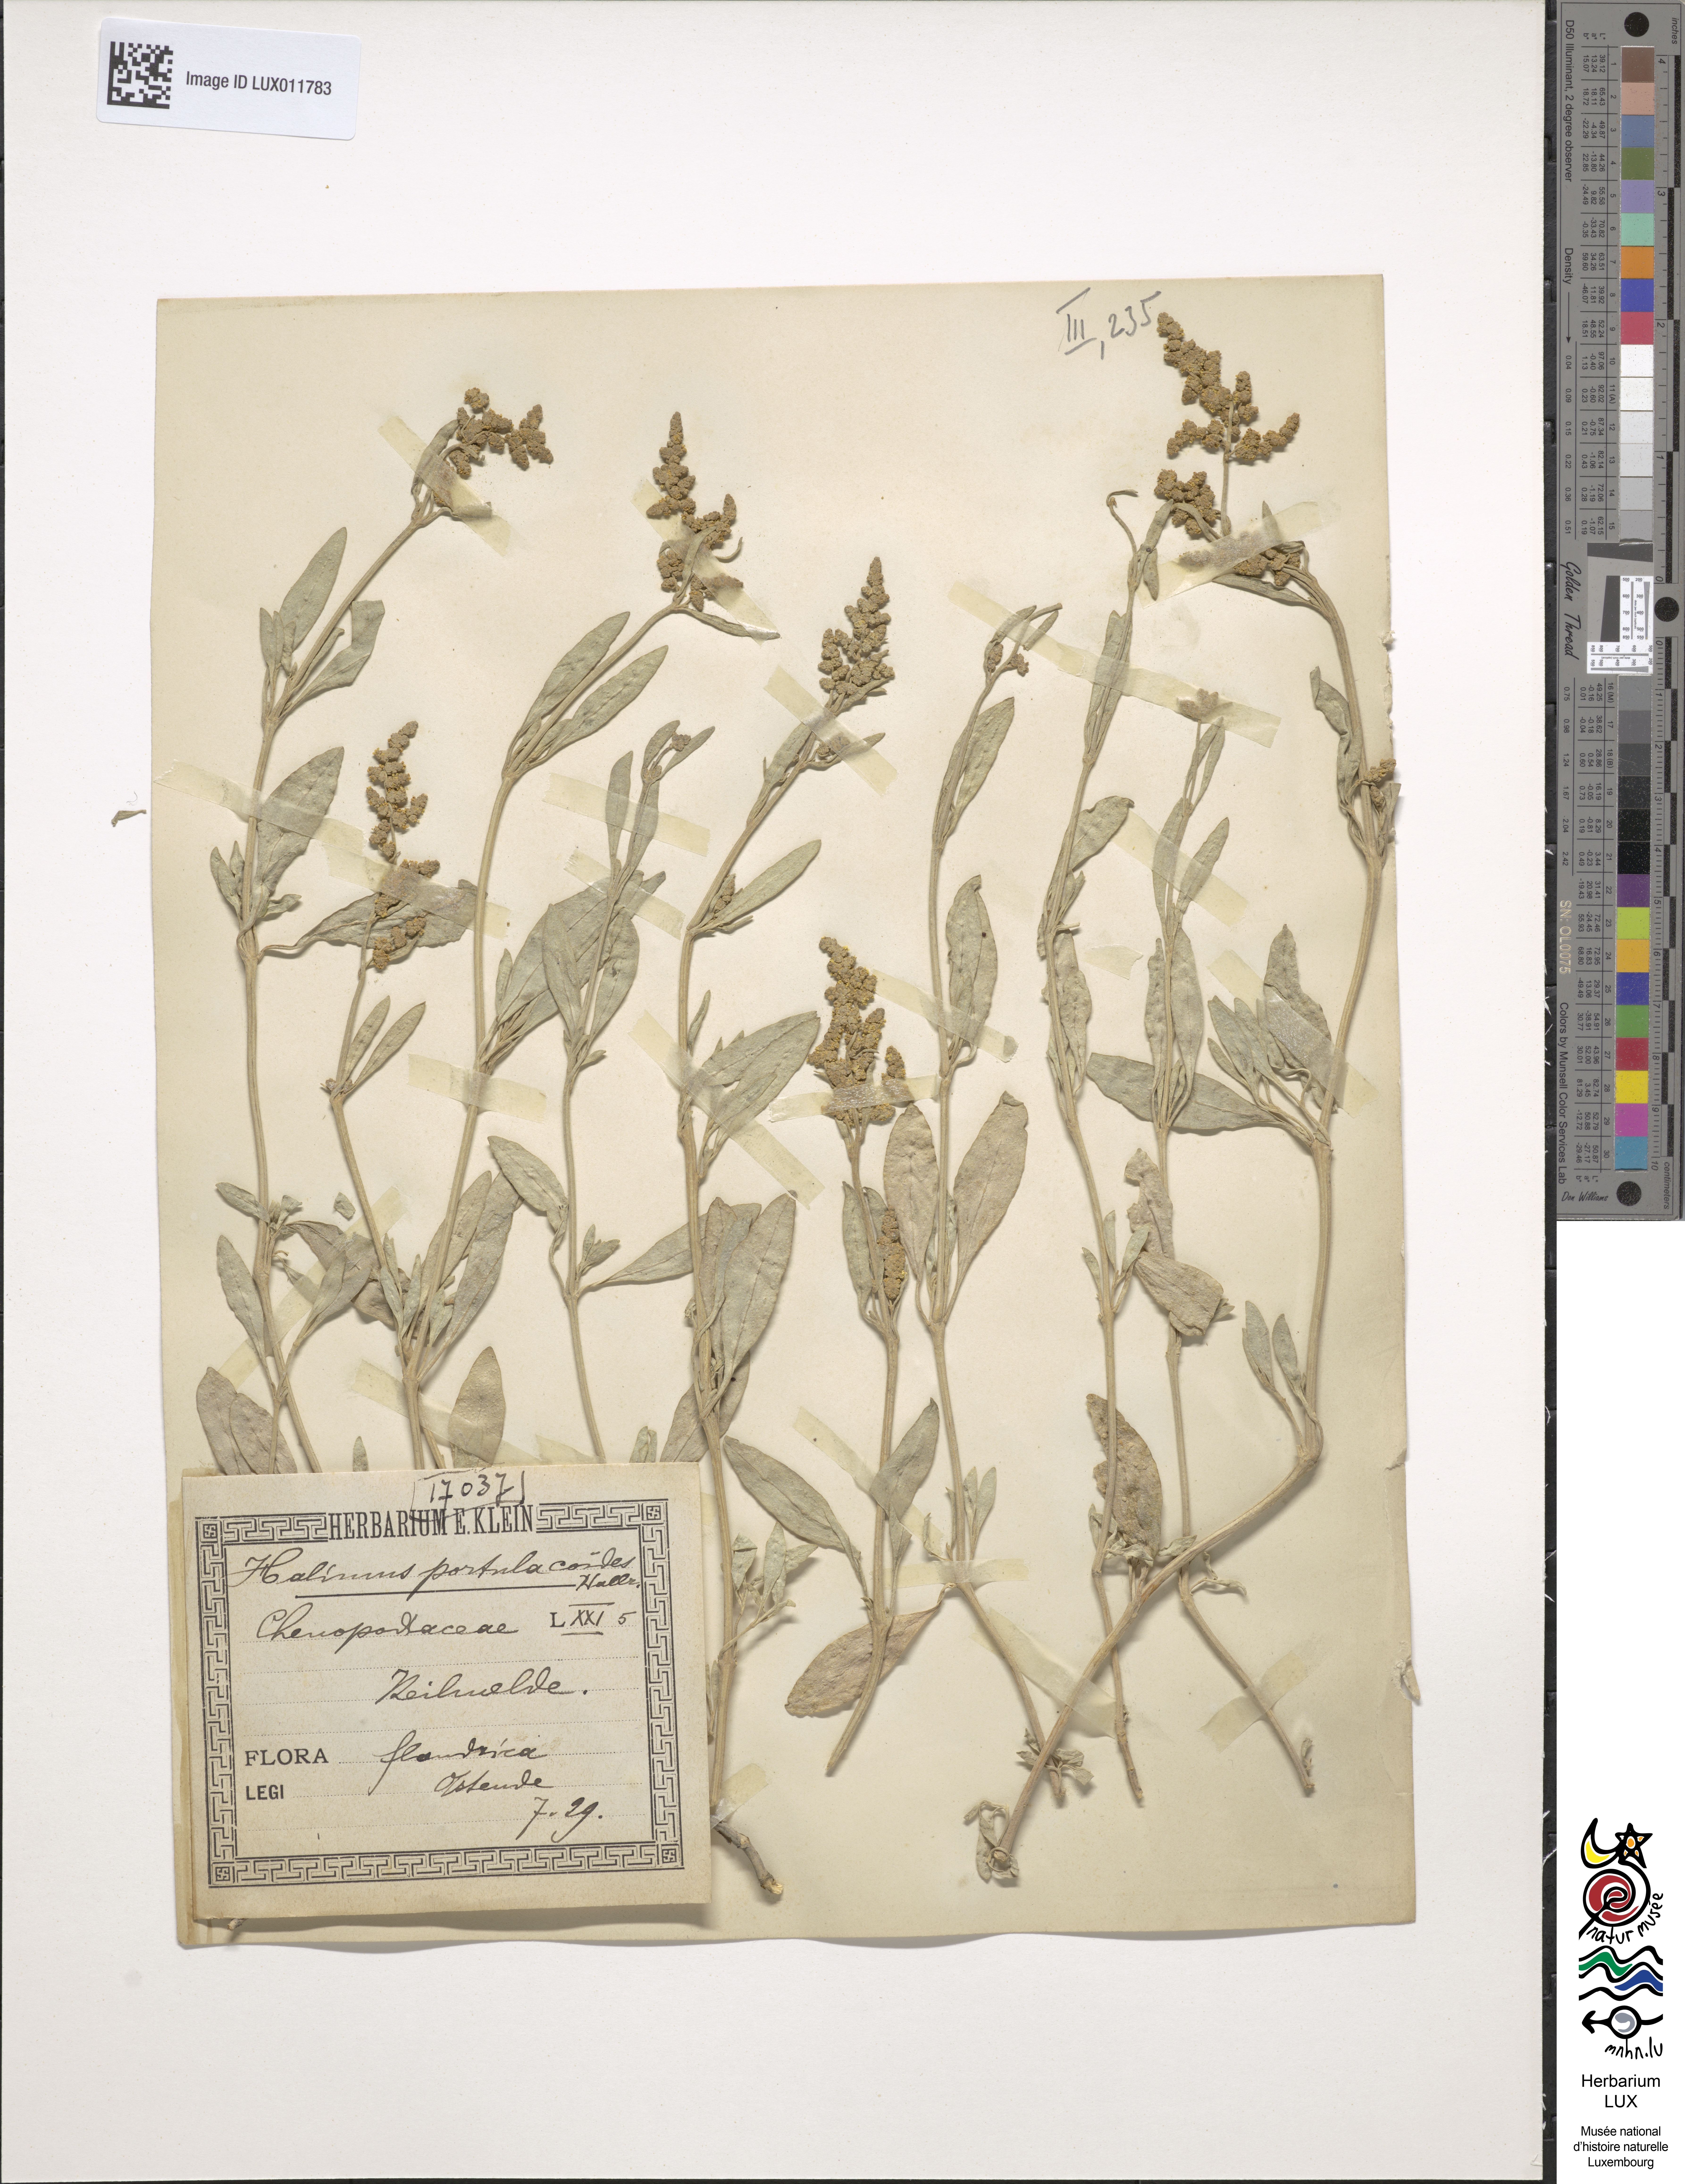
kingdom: Plantae
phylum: Tracheophyta
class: Magnoliopsida
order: Caryophyllales
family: Amaranthaceae
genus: Halimione
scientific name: Halimione portulacoides
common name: Sea-purslane
